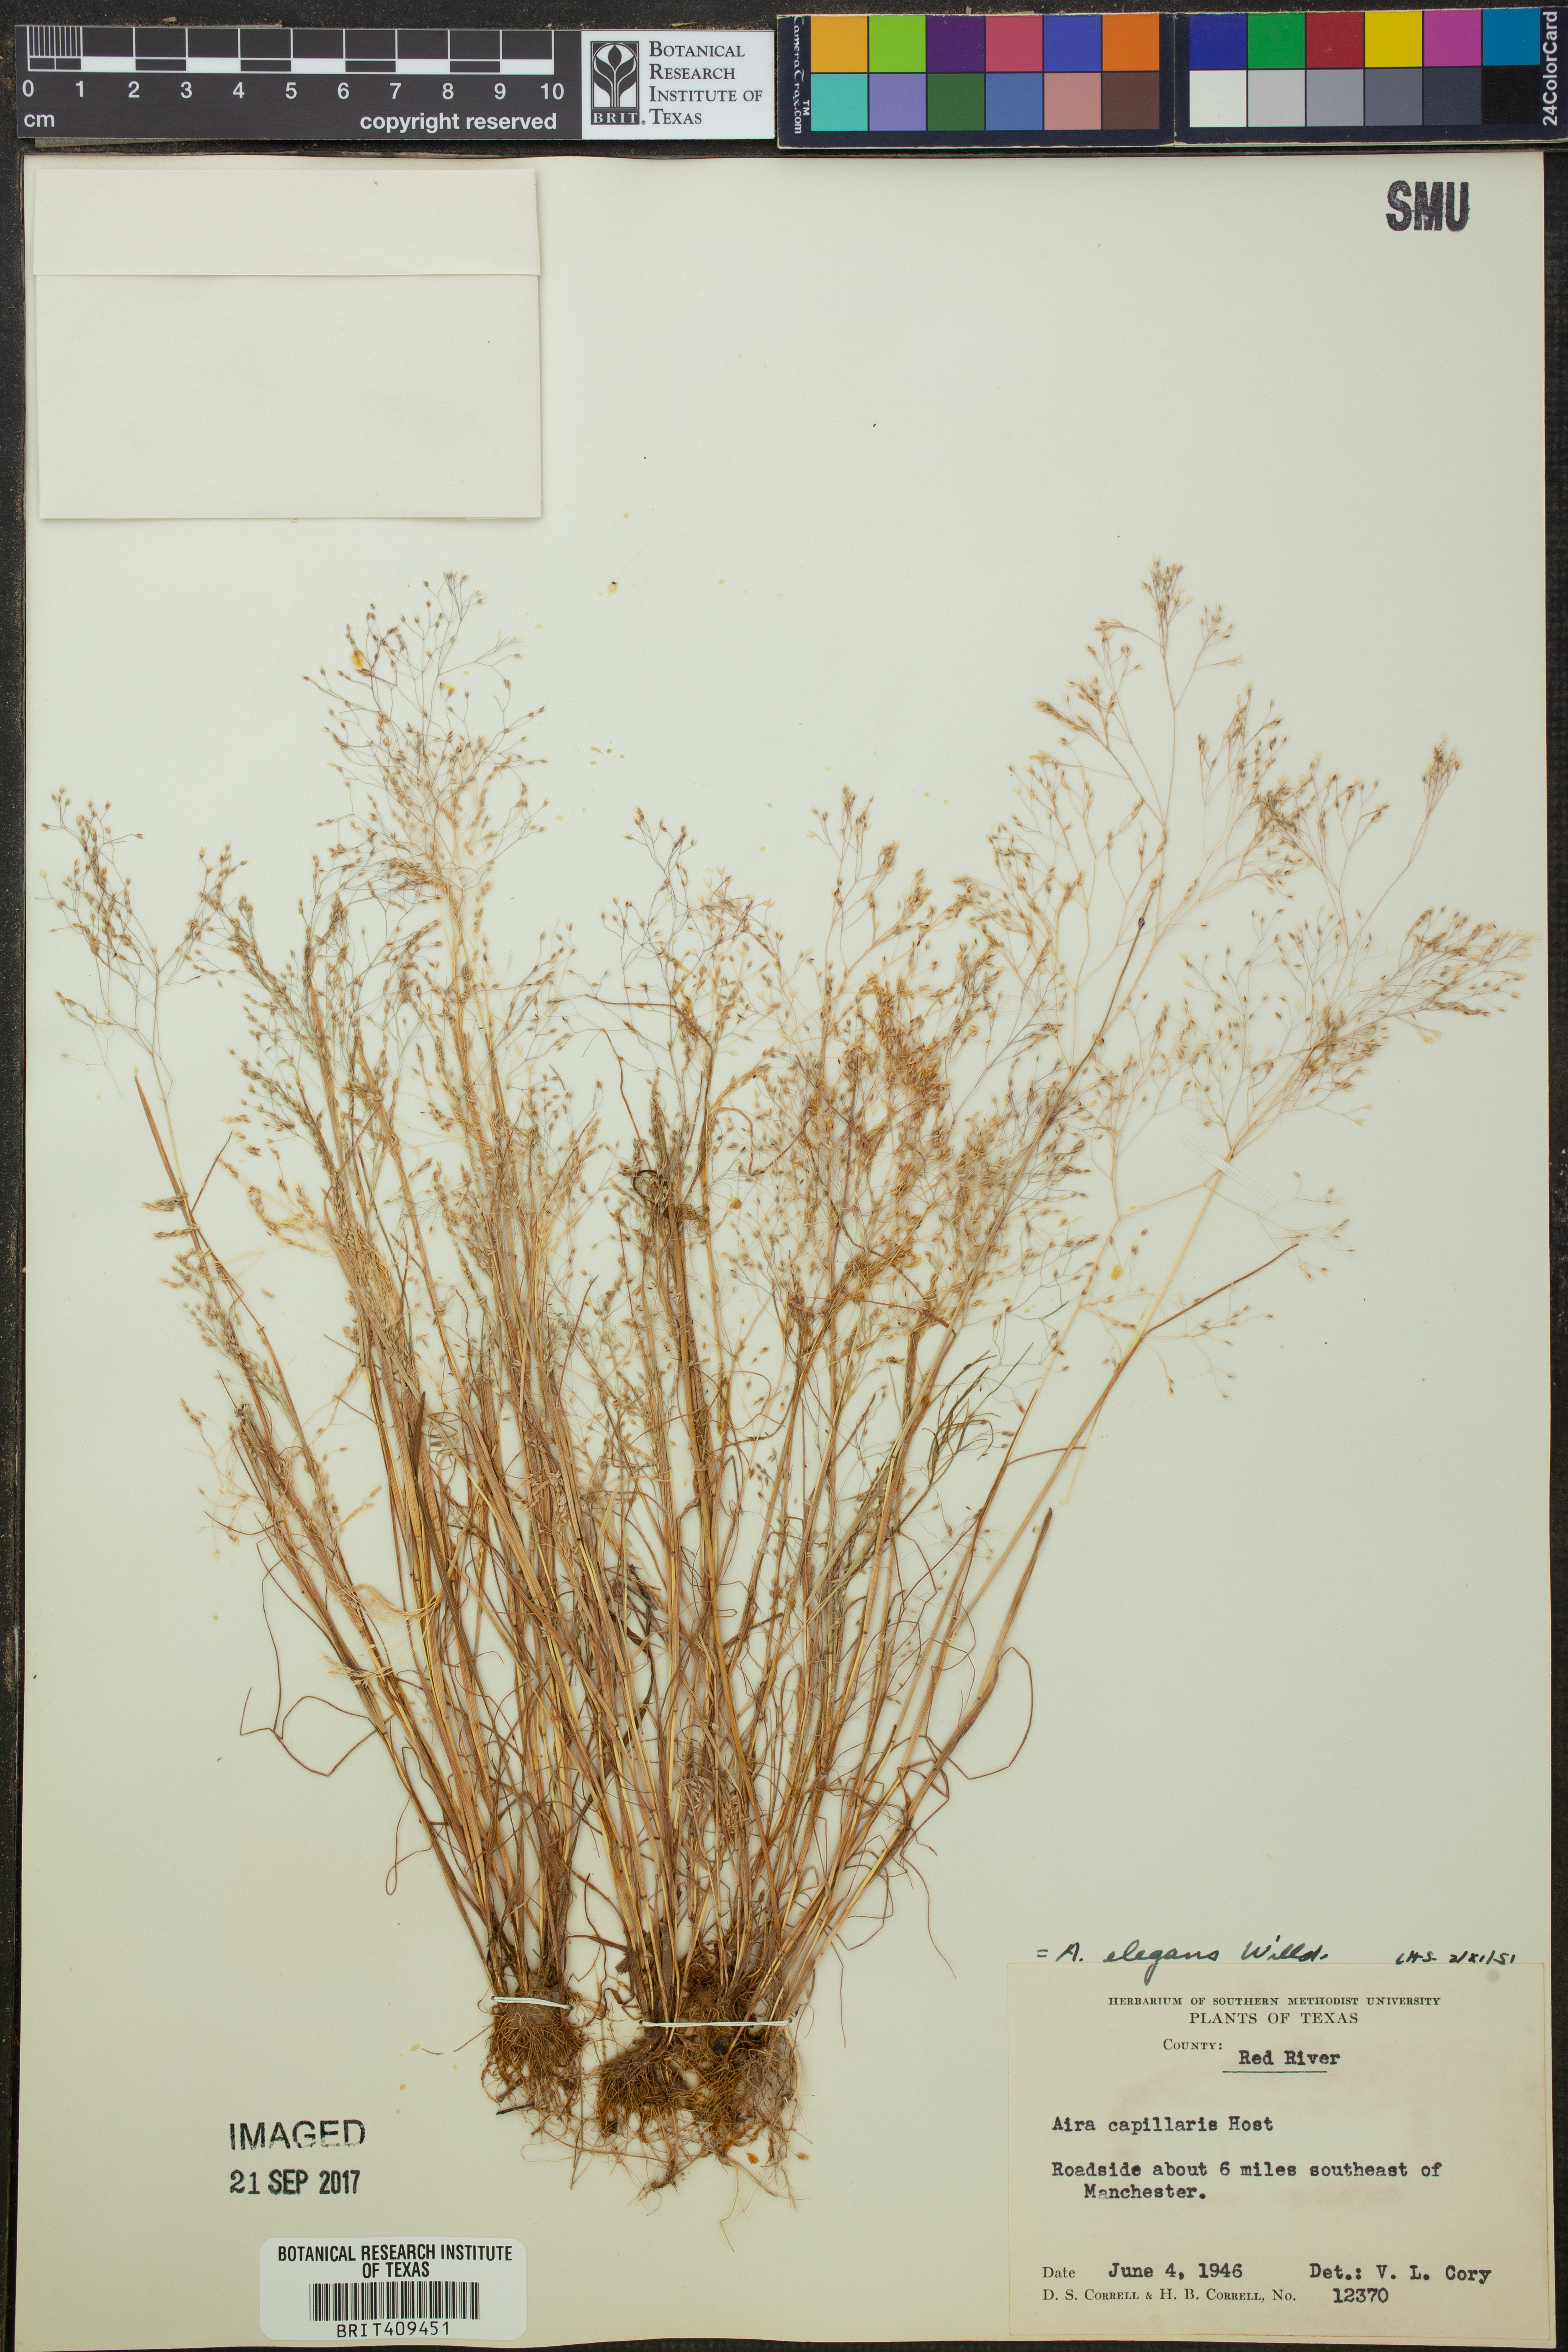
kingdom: Plantae
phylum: Tracheophyta
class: Liliopsida
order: Poales
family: Poaceae
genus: Aira
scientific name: Aira elegans
